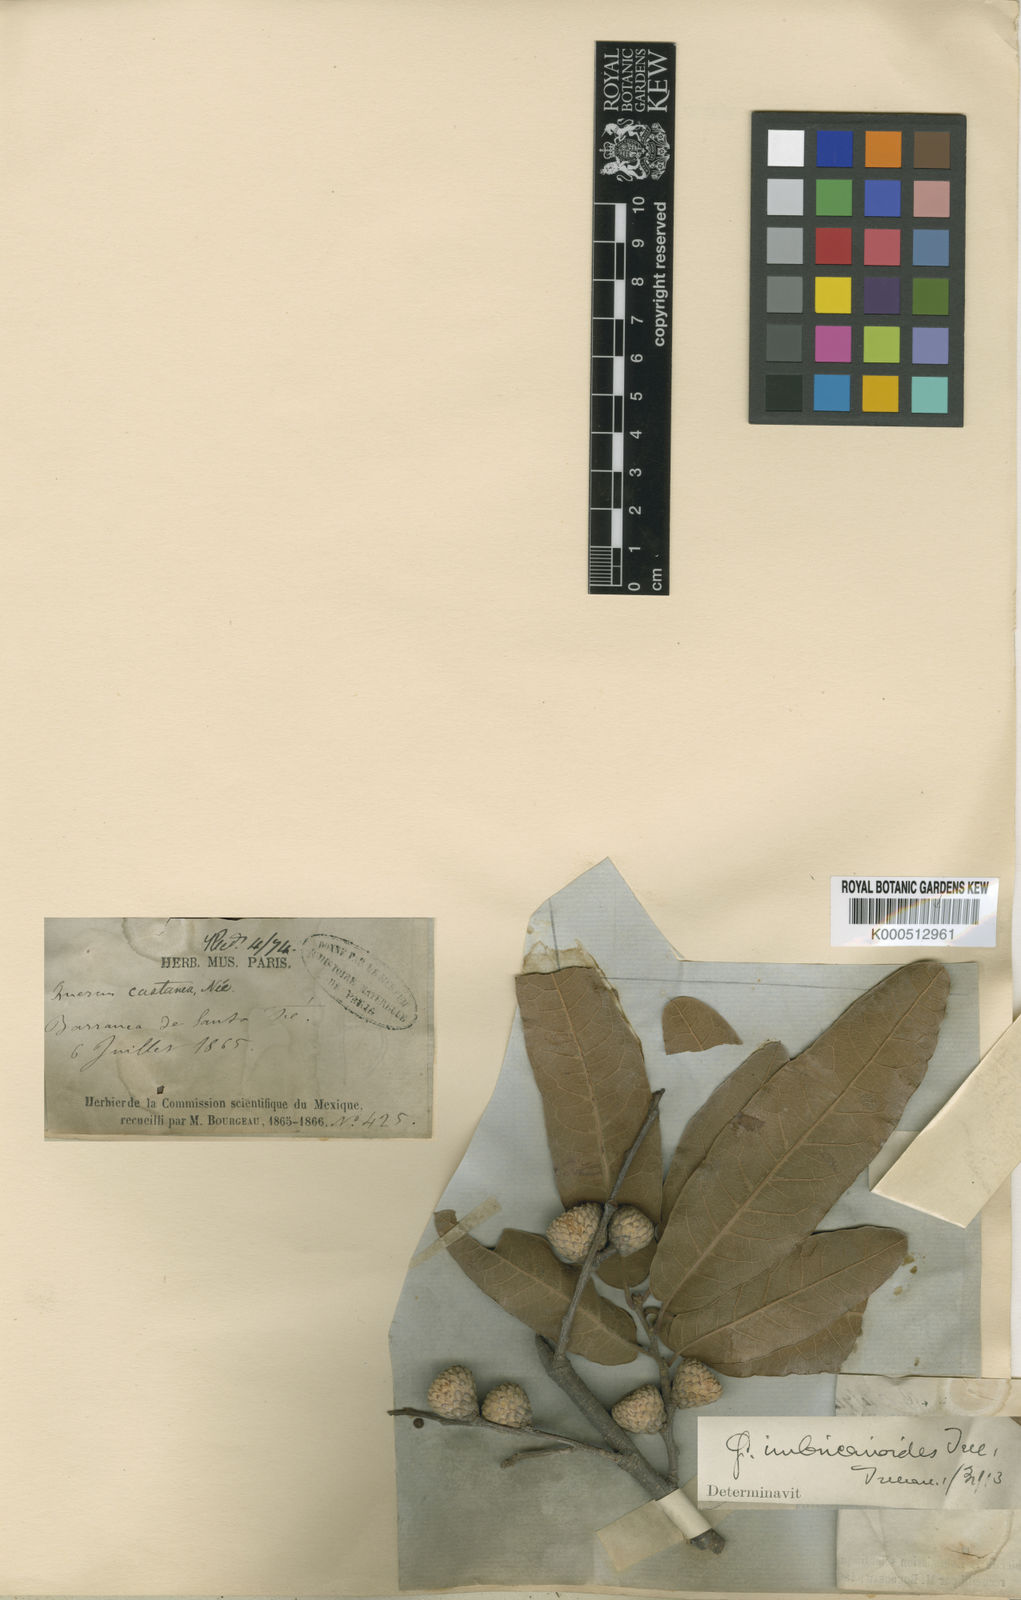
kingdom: Plantae
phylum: Tracheophyta
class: Magnoliopsida
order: Fagales
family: Fagaceae
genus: Quercus
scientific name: Quercus
